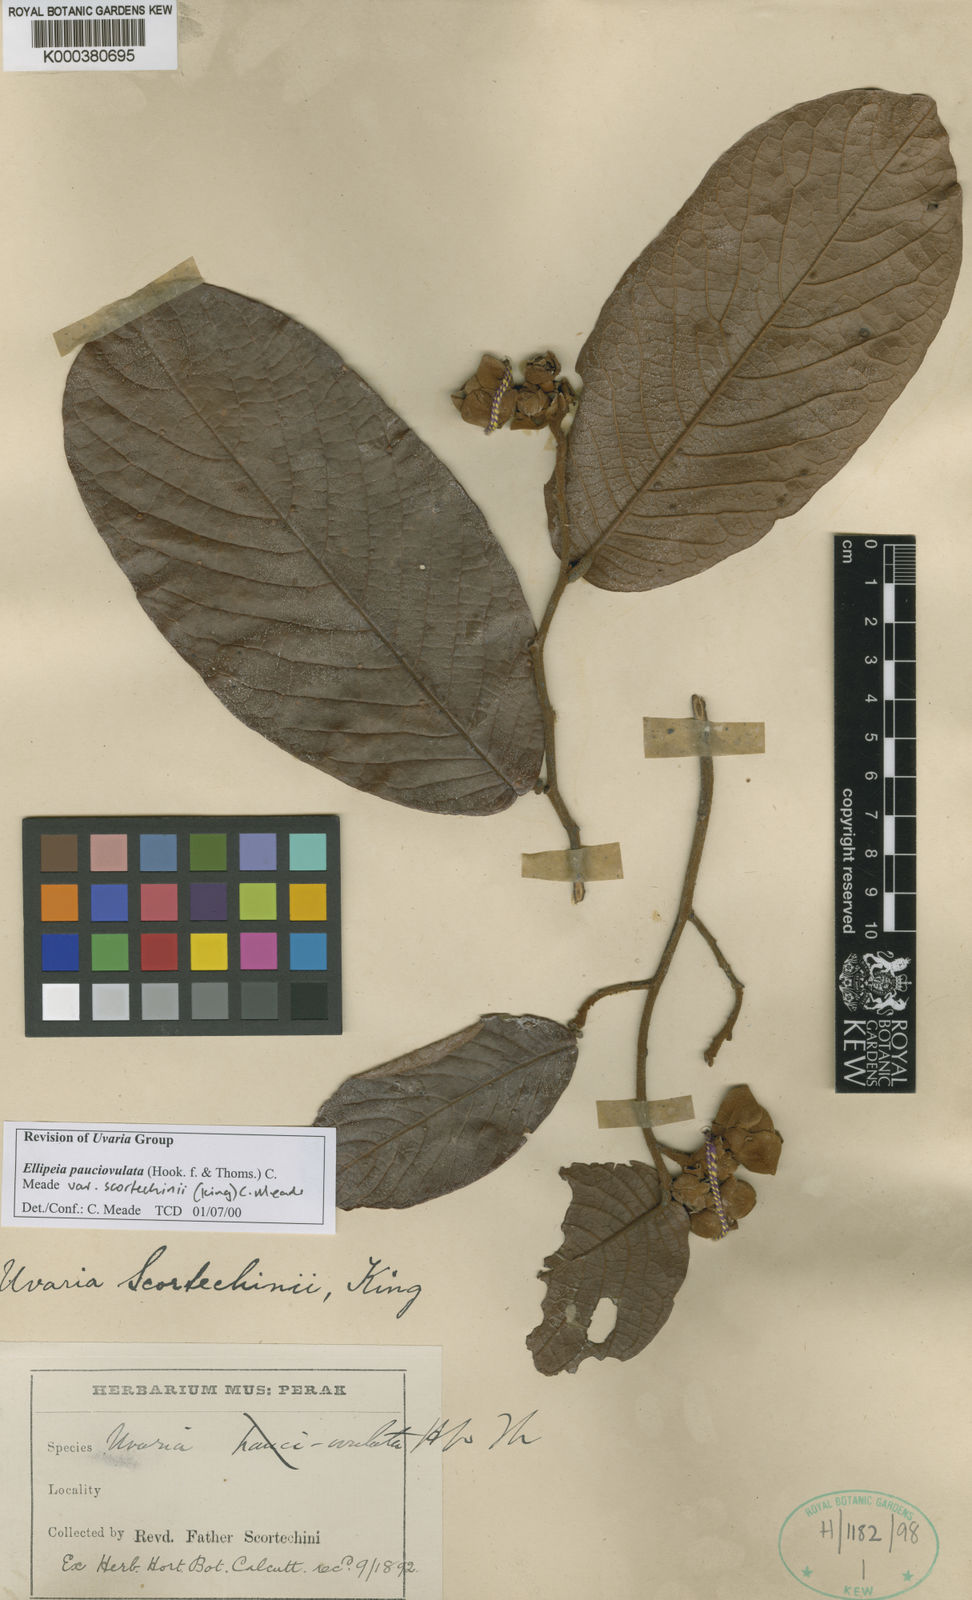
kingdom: Plantae
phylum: Tracheophyta
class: Magnoliopsida
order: Magnoliales
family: Annonaceae
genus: Uvaria
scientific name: Uvaria scortechinii
